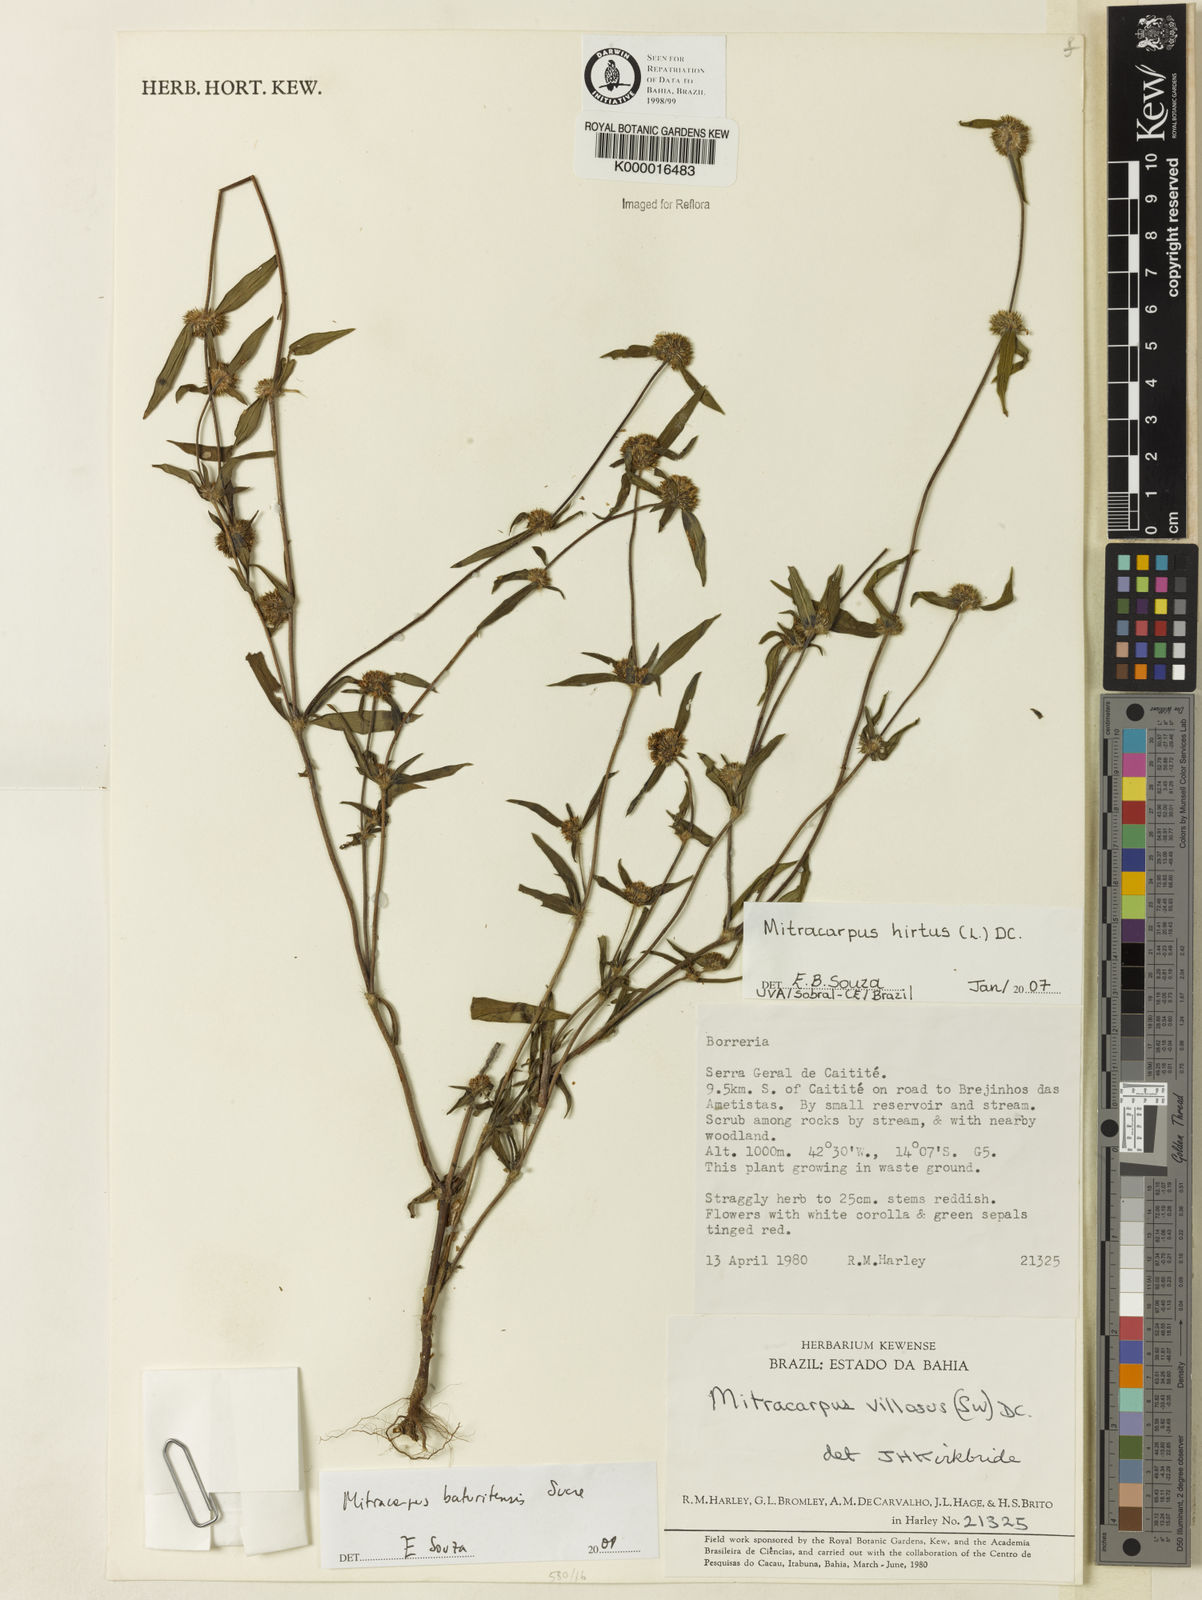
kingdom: Plantae
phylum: Tracheophyta
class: Magnoliopsida
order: Gentianales
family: Rubiaceae
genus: Mitracarpus
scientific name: Mitracarpus baturitensis
